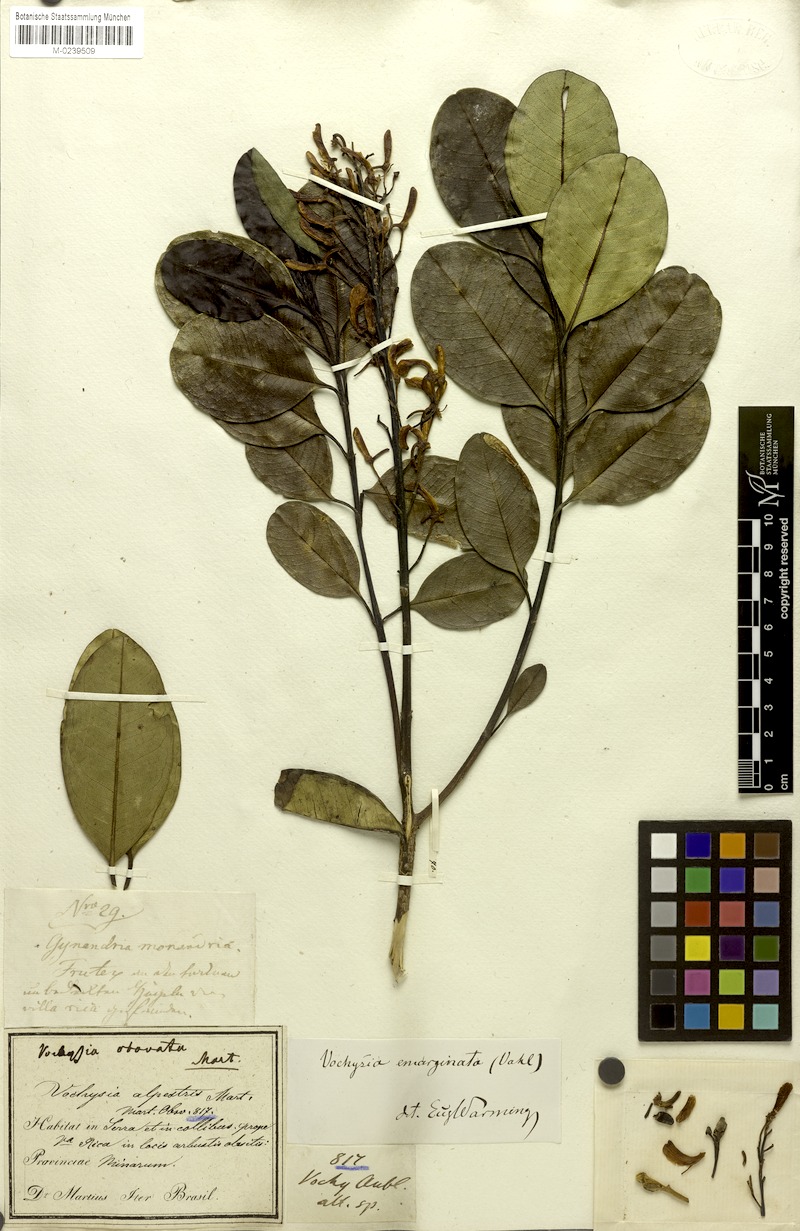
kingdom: Plantae
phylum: Tracheophyta
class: Magnoliopsida
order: Myrtales
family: Vochysiaceae
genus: Vochysia
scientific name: Vochysia emarginata
